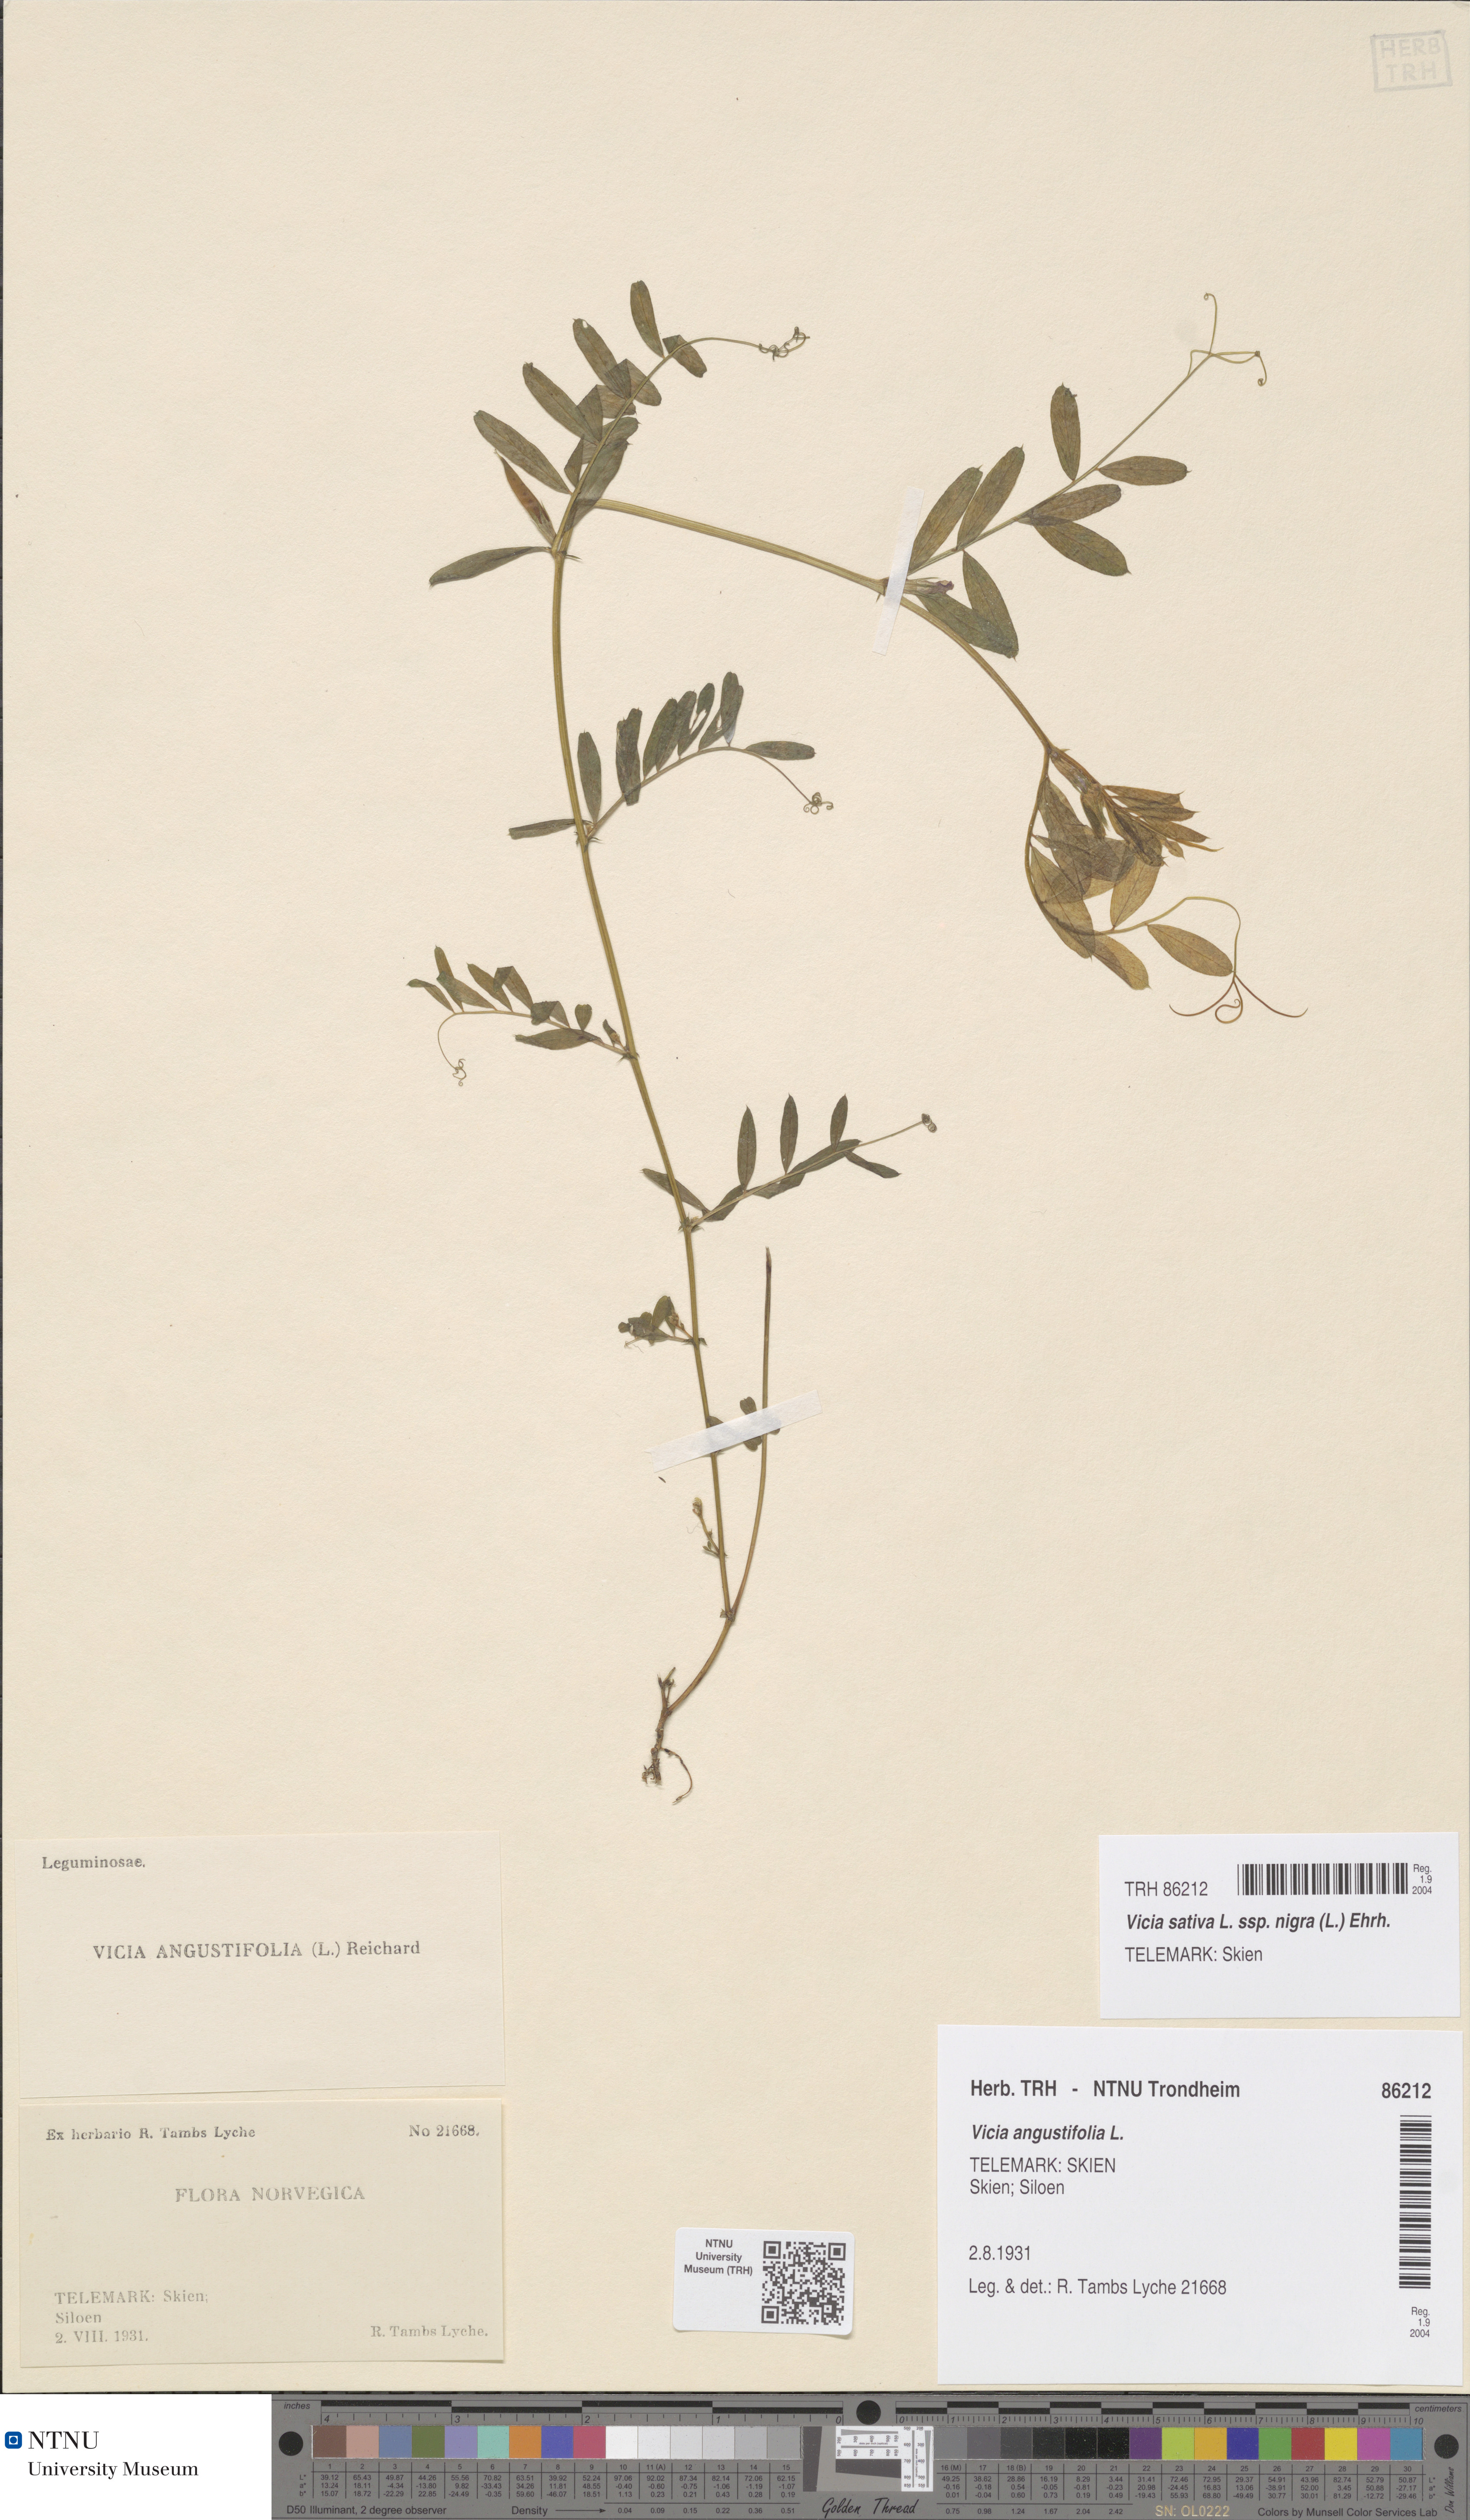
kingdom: Plantae
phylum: Tracheophyta
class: Magnoliopsida
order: Fabales
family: Fabaceae
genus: Vicia
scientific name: Vicia sativa
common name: Garden vetch
